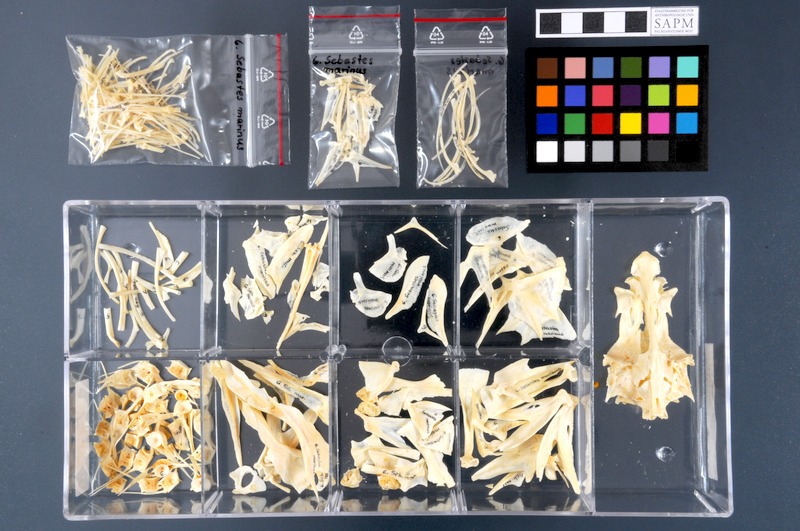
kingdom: Animalia
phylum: Chordata
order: Scorpaeniformes
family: Sebastidae
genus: Sebastes
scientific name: Sebastes norvegicus
